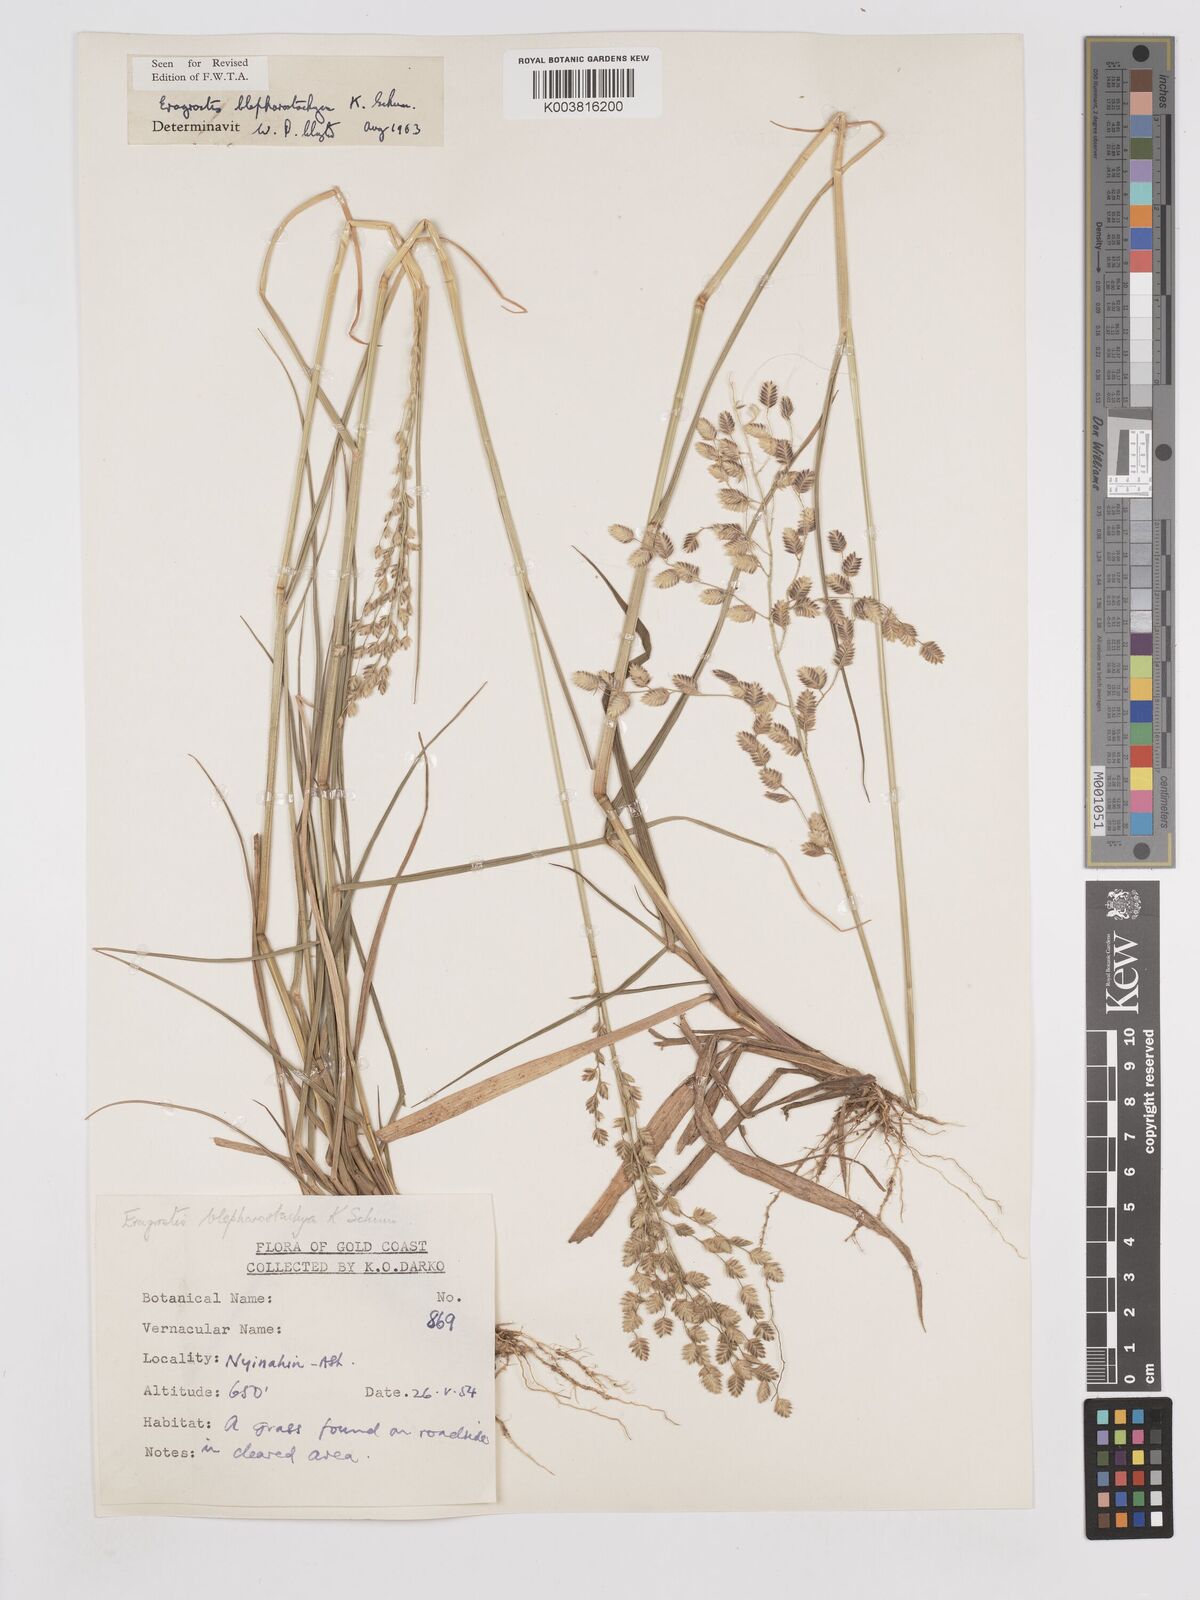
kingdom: Plantae
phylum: Tracheophyta
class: Liliopsida
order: Poales
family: Poaceae
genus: Eragrostis
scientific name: Eragrostis blepharostachya
